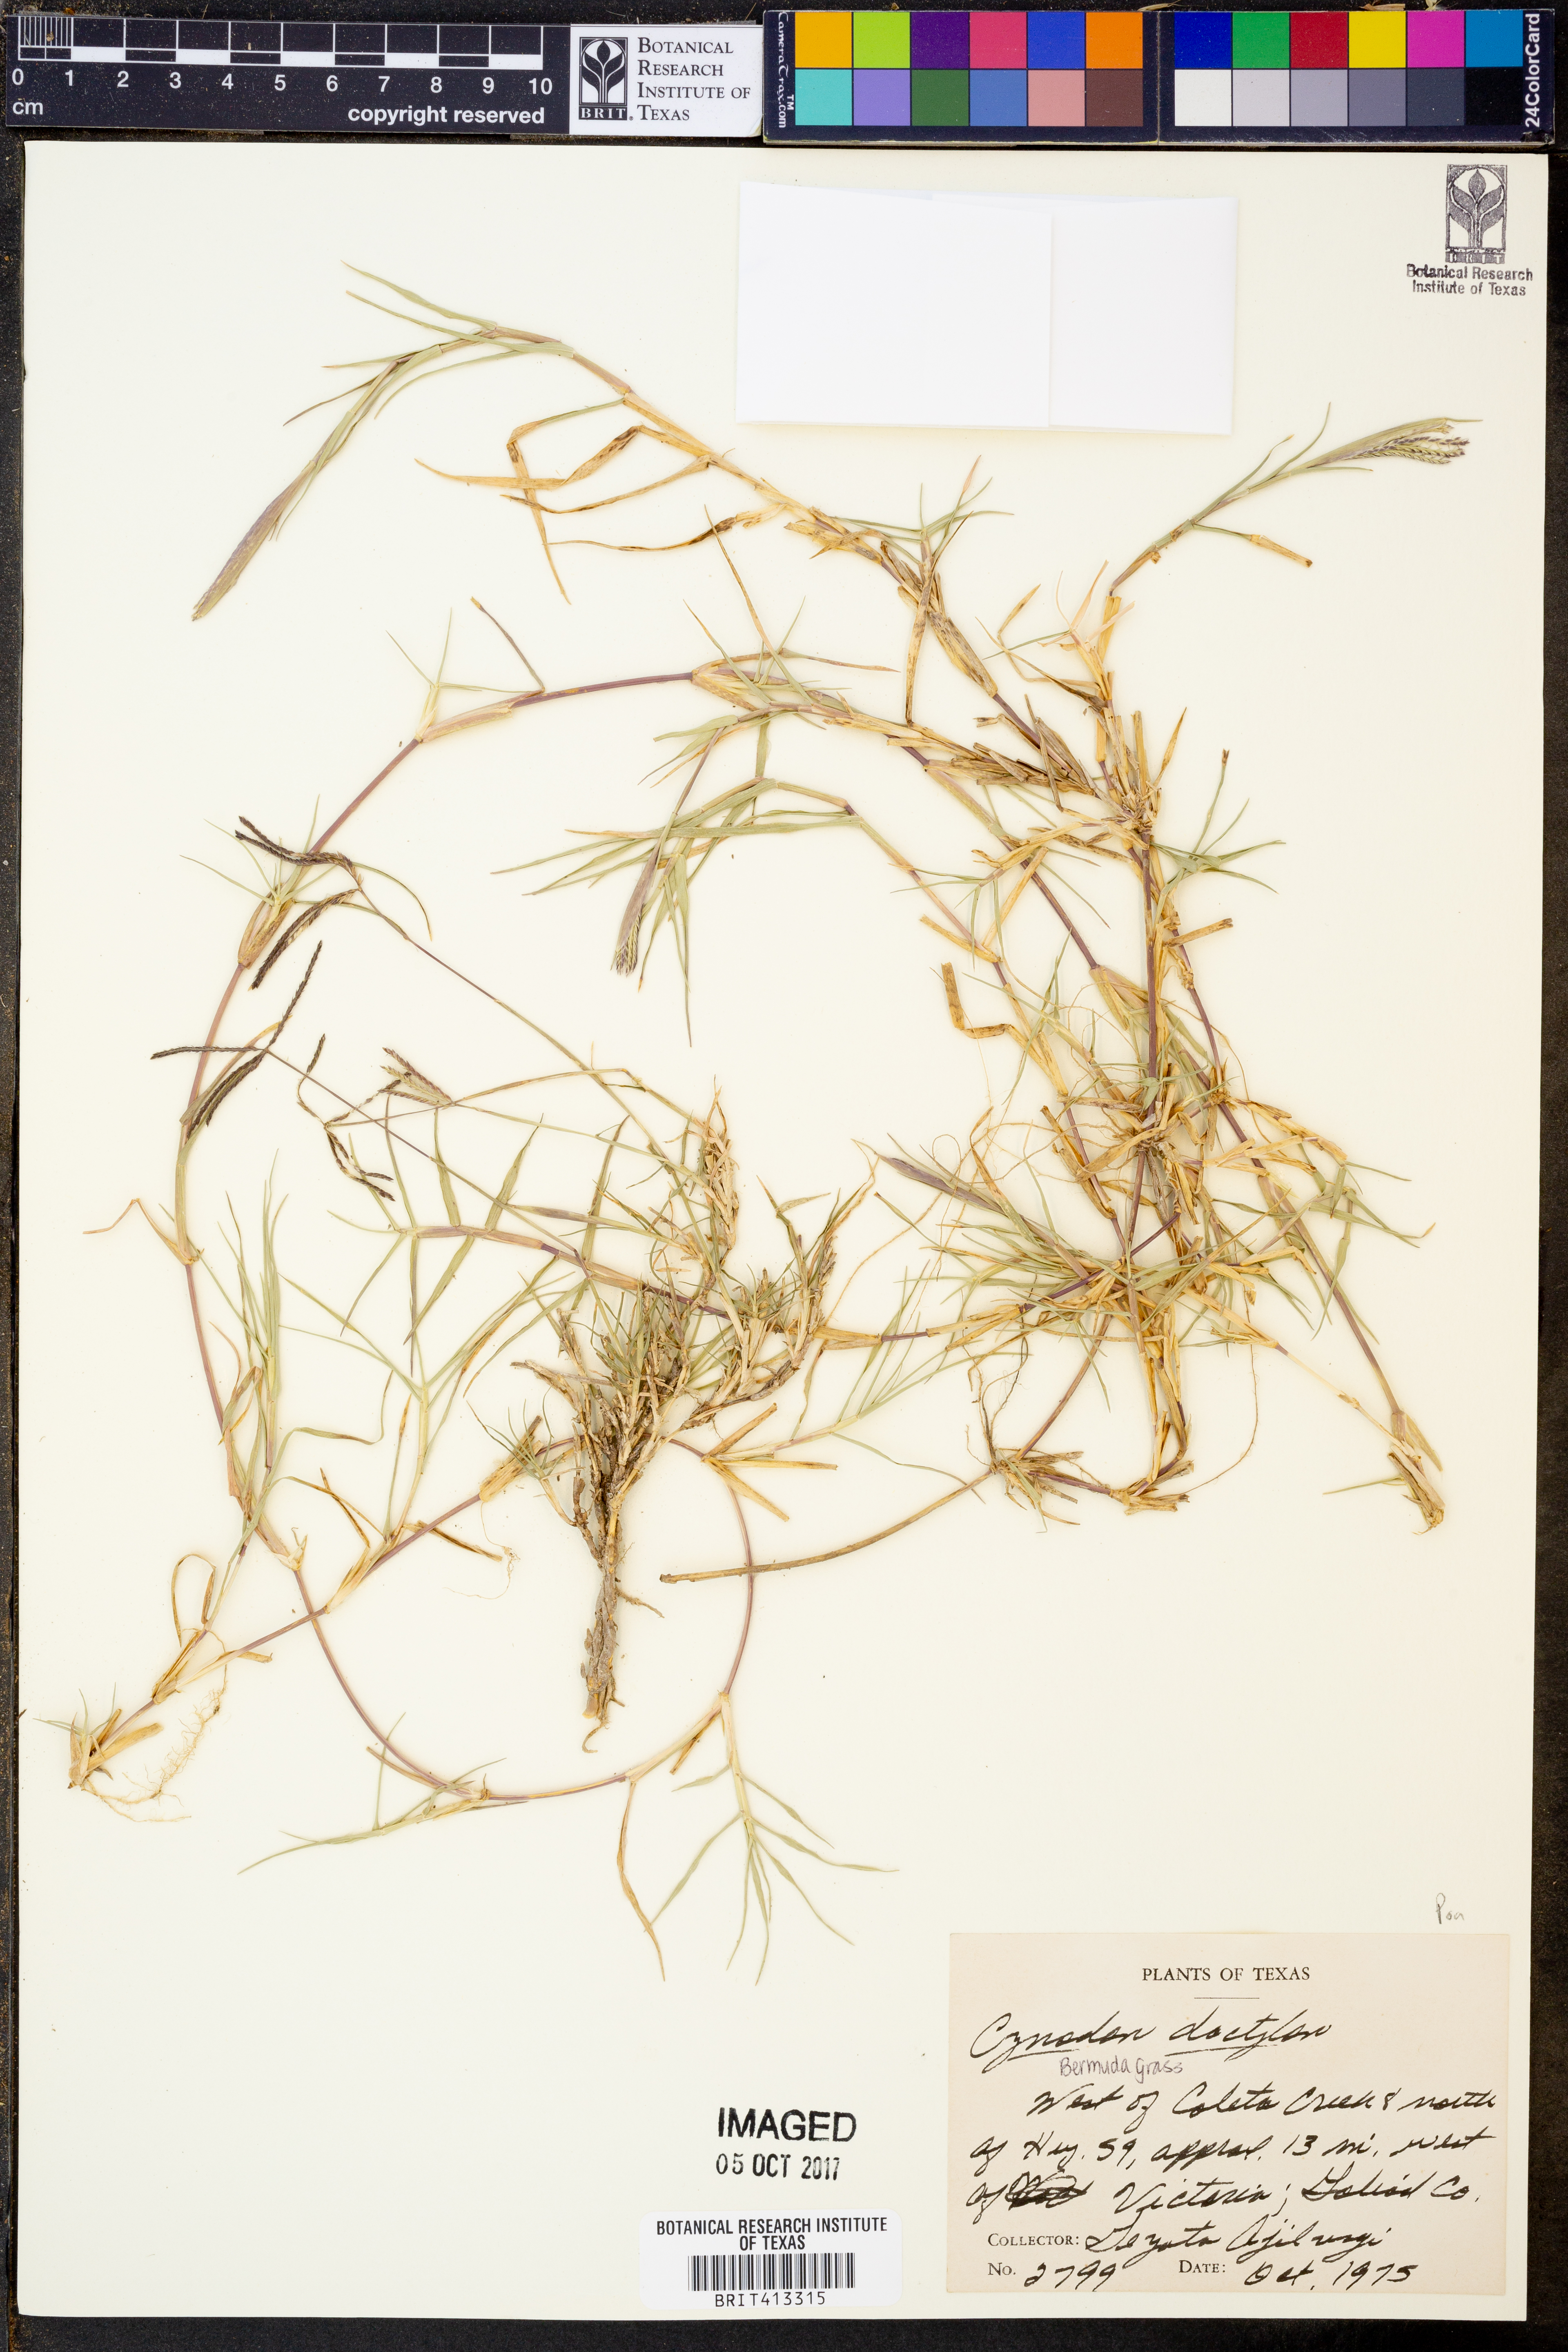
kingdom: Plantae
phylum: Tracheophyta
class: Liliopsida
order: Poales
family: Poaceae
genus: Cynodon
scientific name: Cynodon dactylon
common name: Bermuda grass
